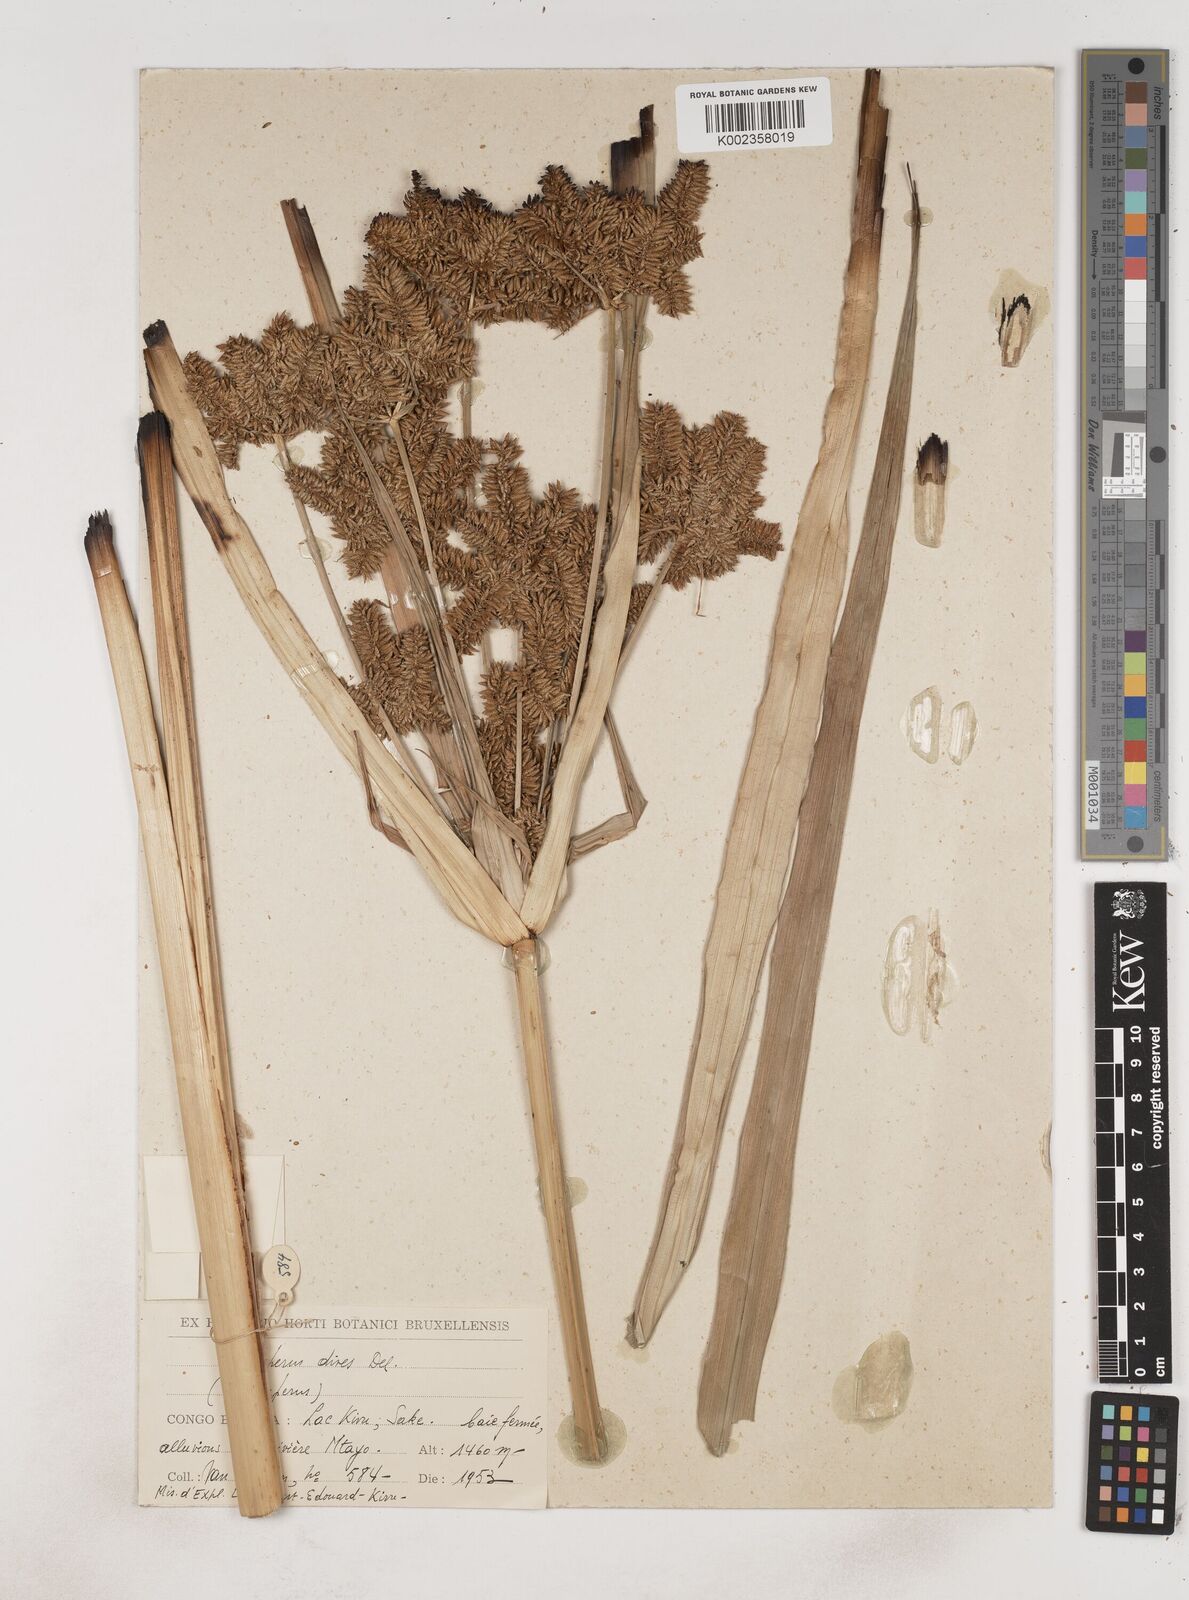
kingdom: Plantae
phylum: Tracheophyta
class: Liliopsida
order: Poales
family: Cyperaceae
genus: Cyperus
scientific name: Cyperus dives
